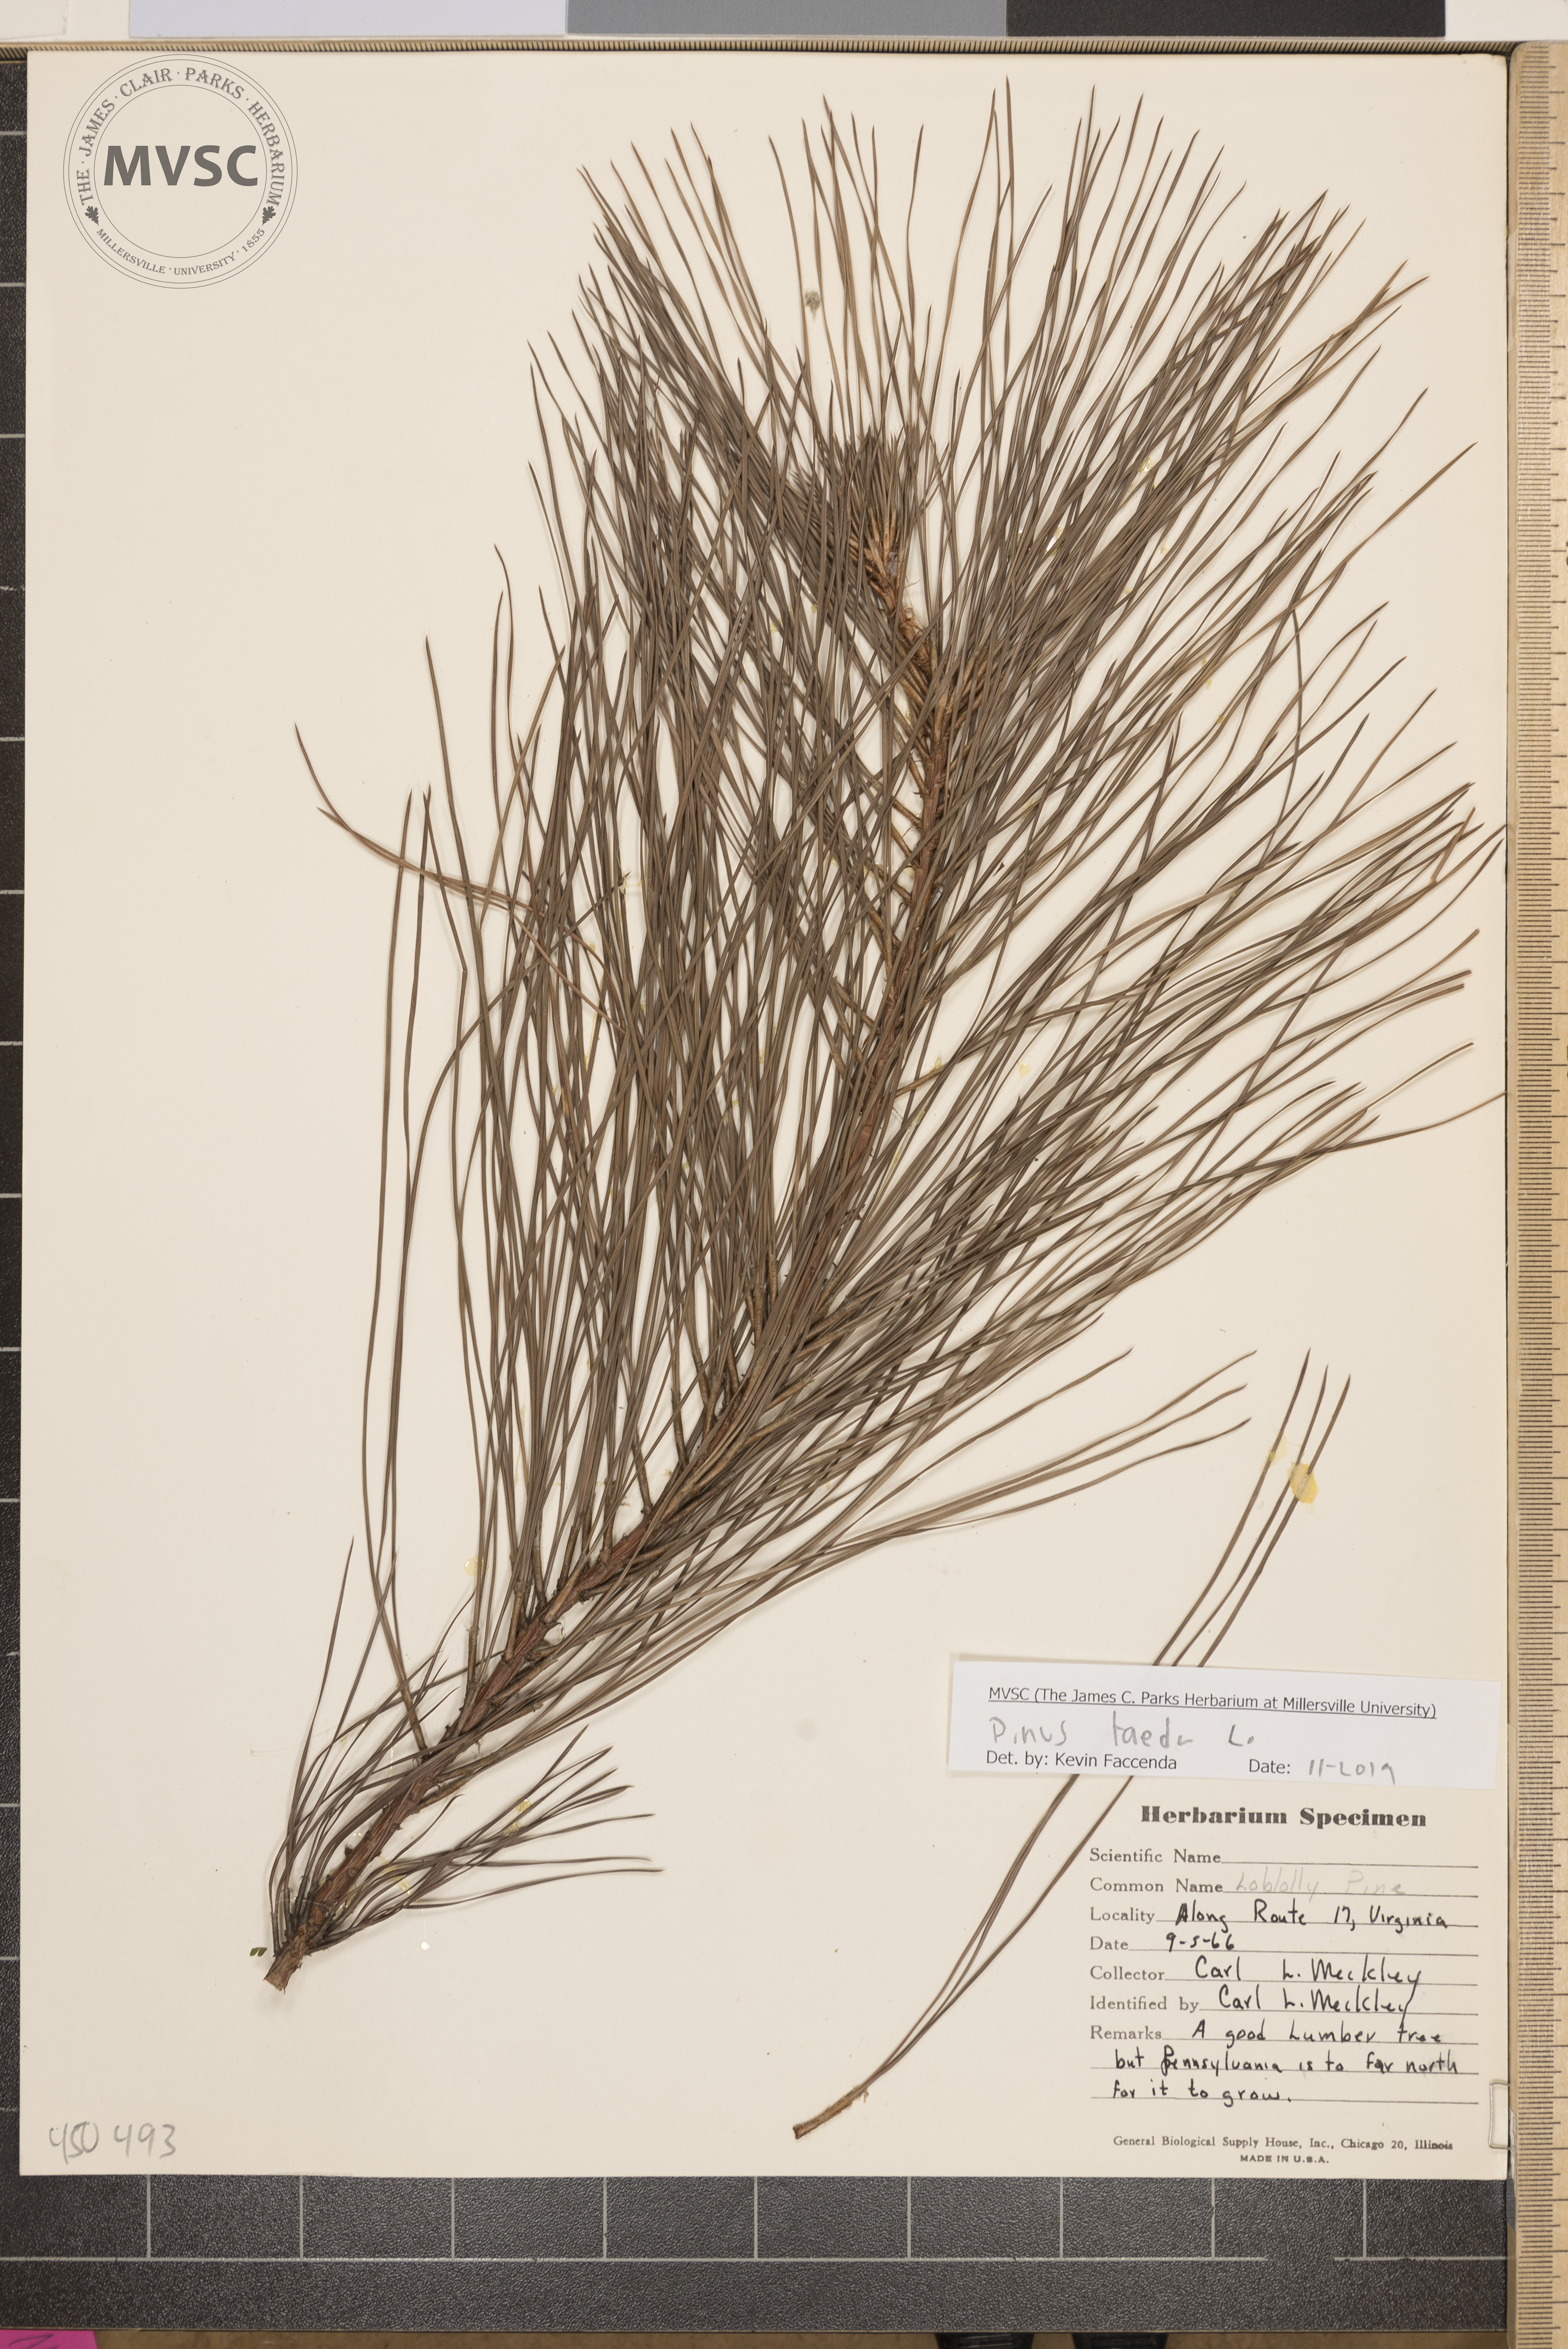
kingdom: Plantae
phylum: Tracheophyta
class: Pinopsida
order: Pinales
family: Pinaceae
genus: Pinus
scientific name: Pinus taeda
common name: Loblolly pine
